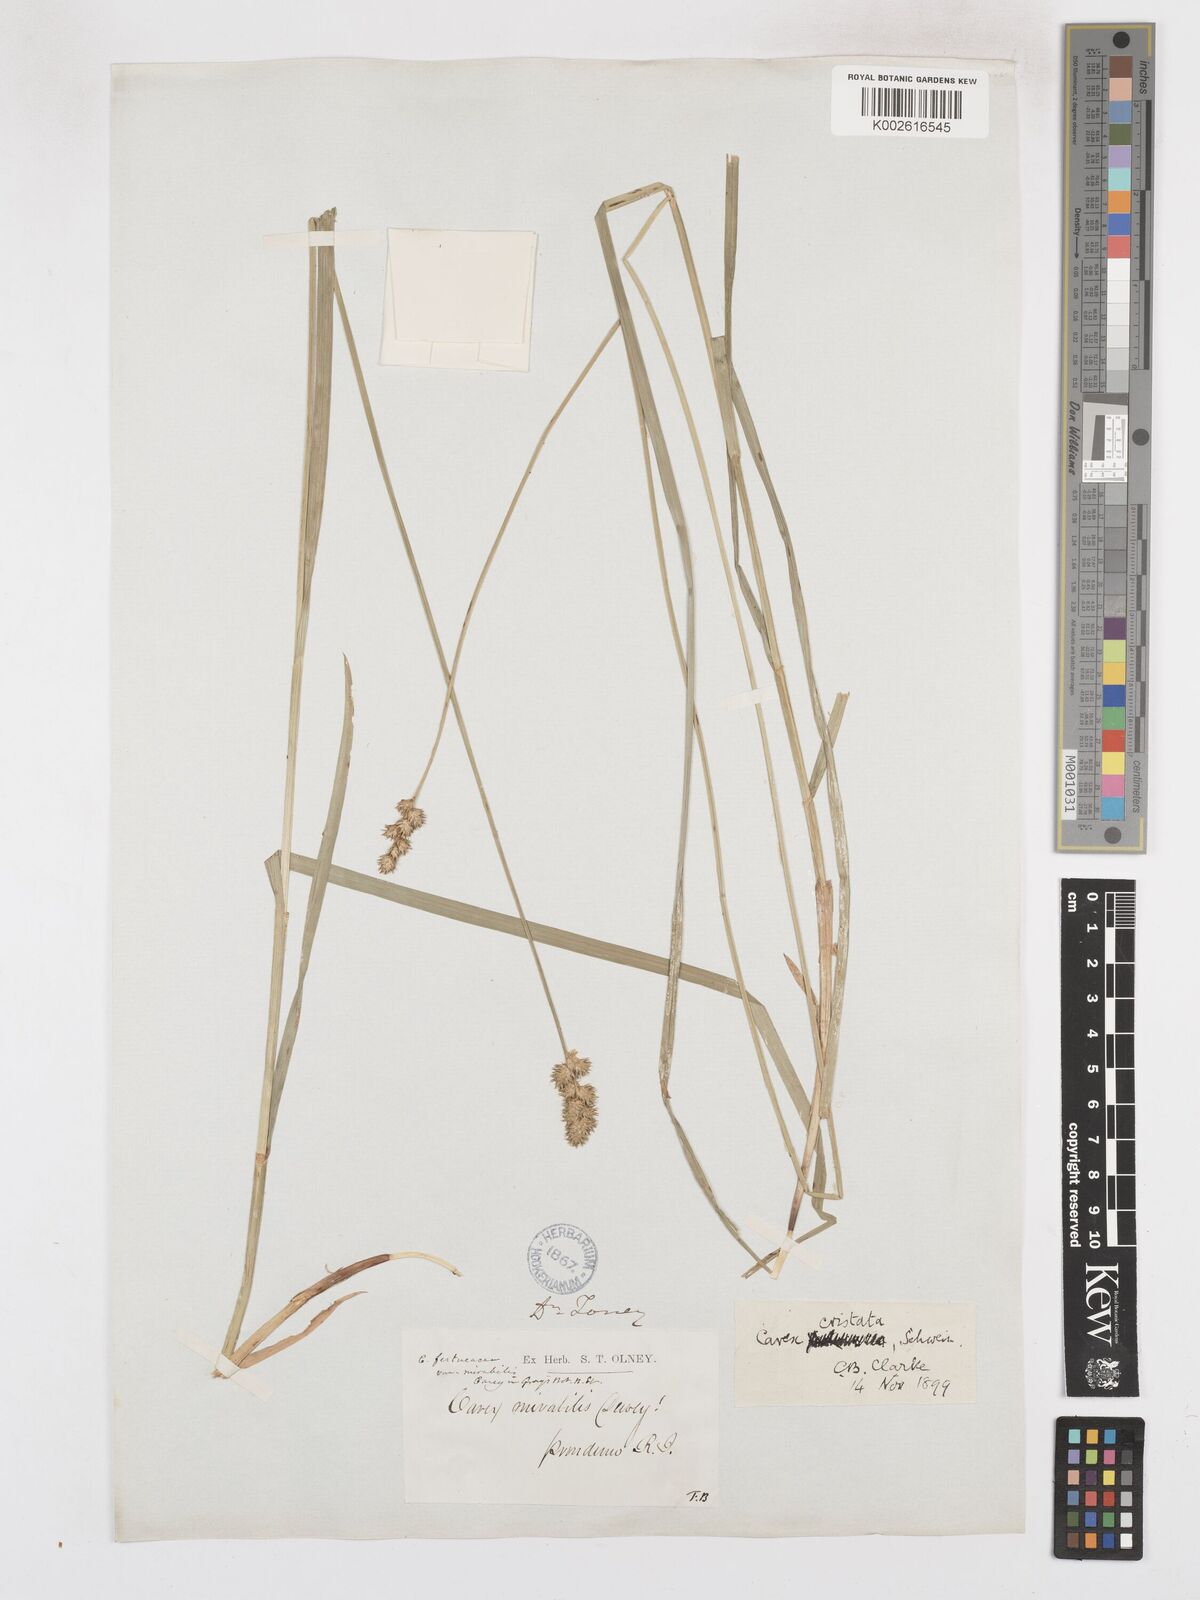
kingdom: Plantae
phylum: Tracheophyta
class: Liliopsida
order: Poales
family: Cyperaceae
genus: Carex
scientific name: Carex cristatella
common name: Crested oval sedge
